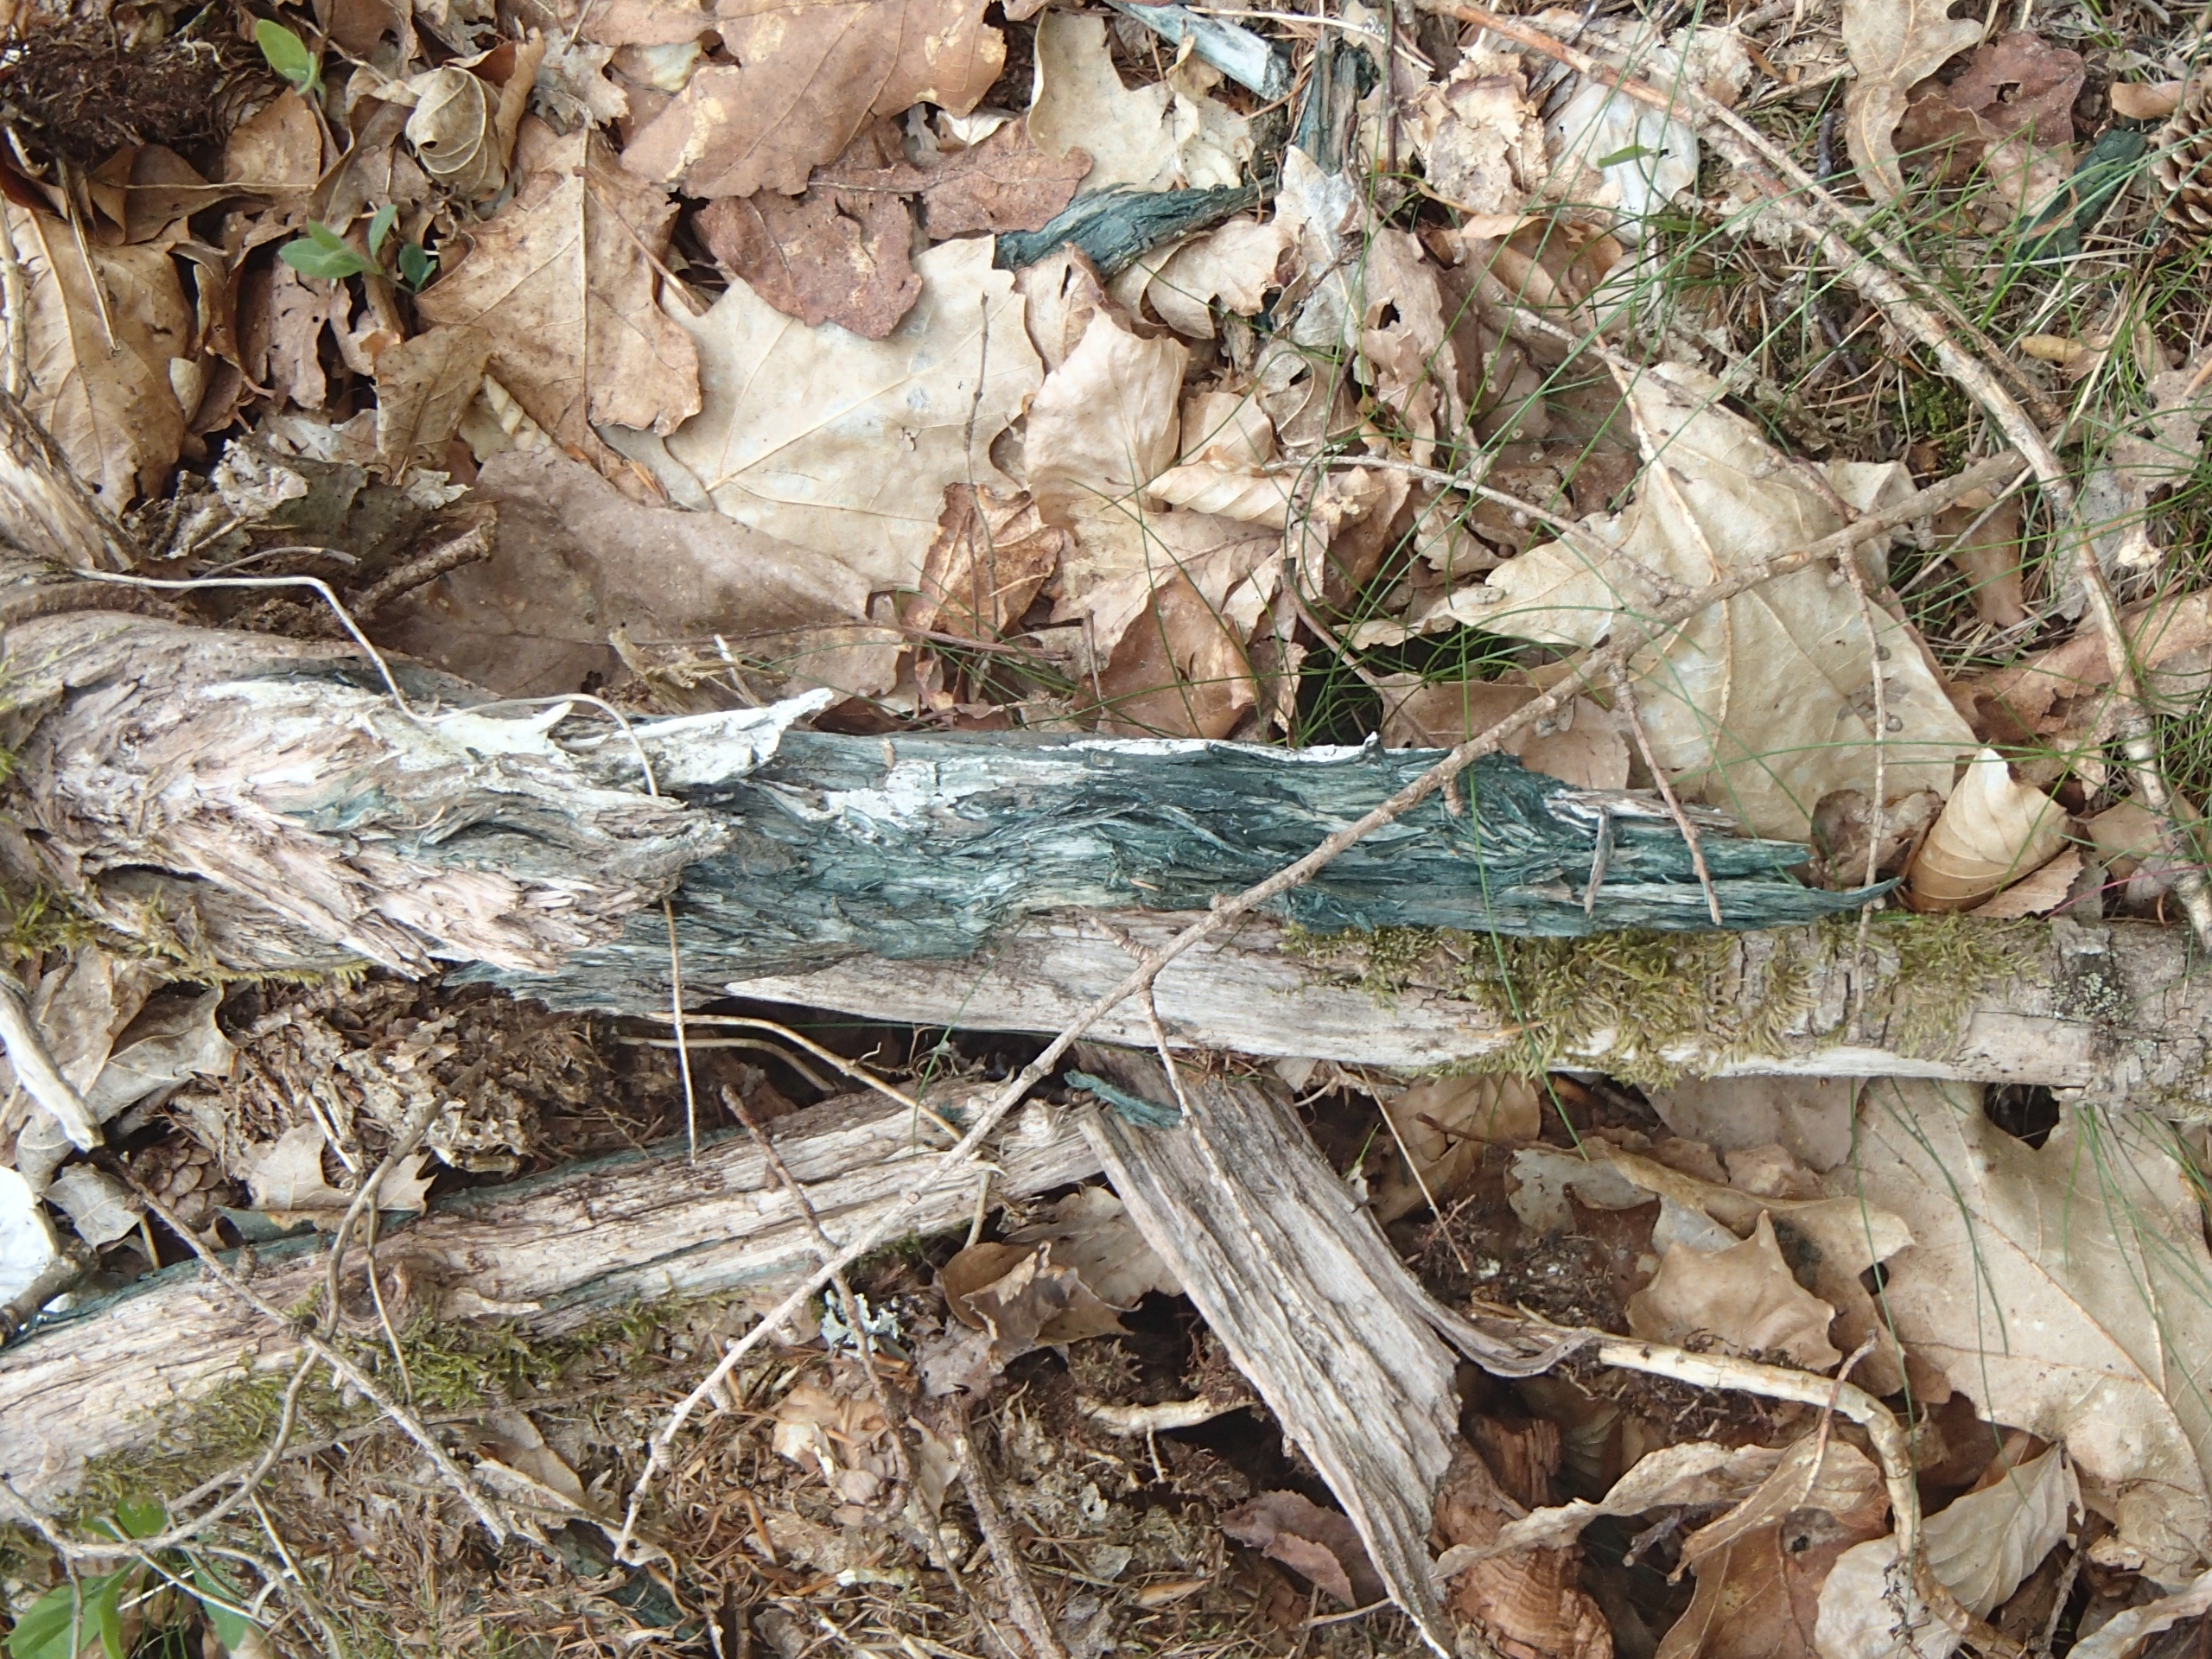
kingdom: Fungi
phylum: Ascomycota
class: Leotiomycetes
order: Helotiales
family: Chlorociboriaceae
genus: Chlorociboria
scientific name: Chlorociboria aeruginascens
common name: Almindelig grønskive
